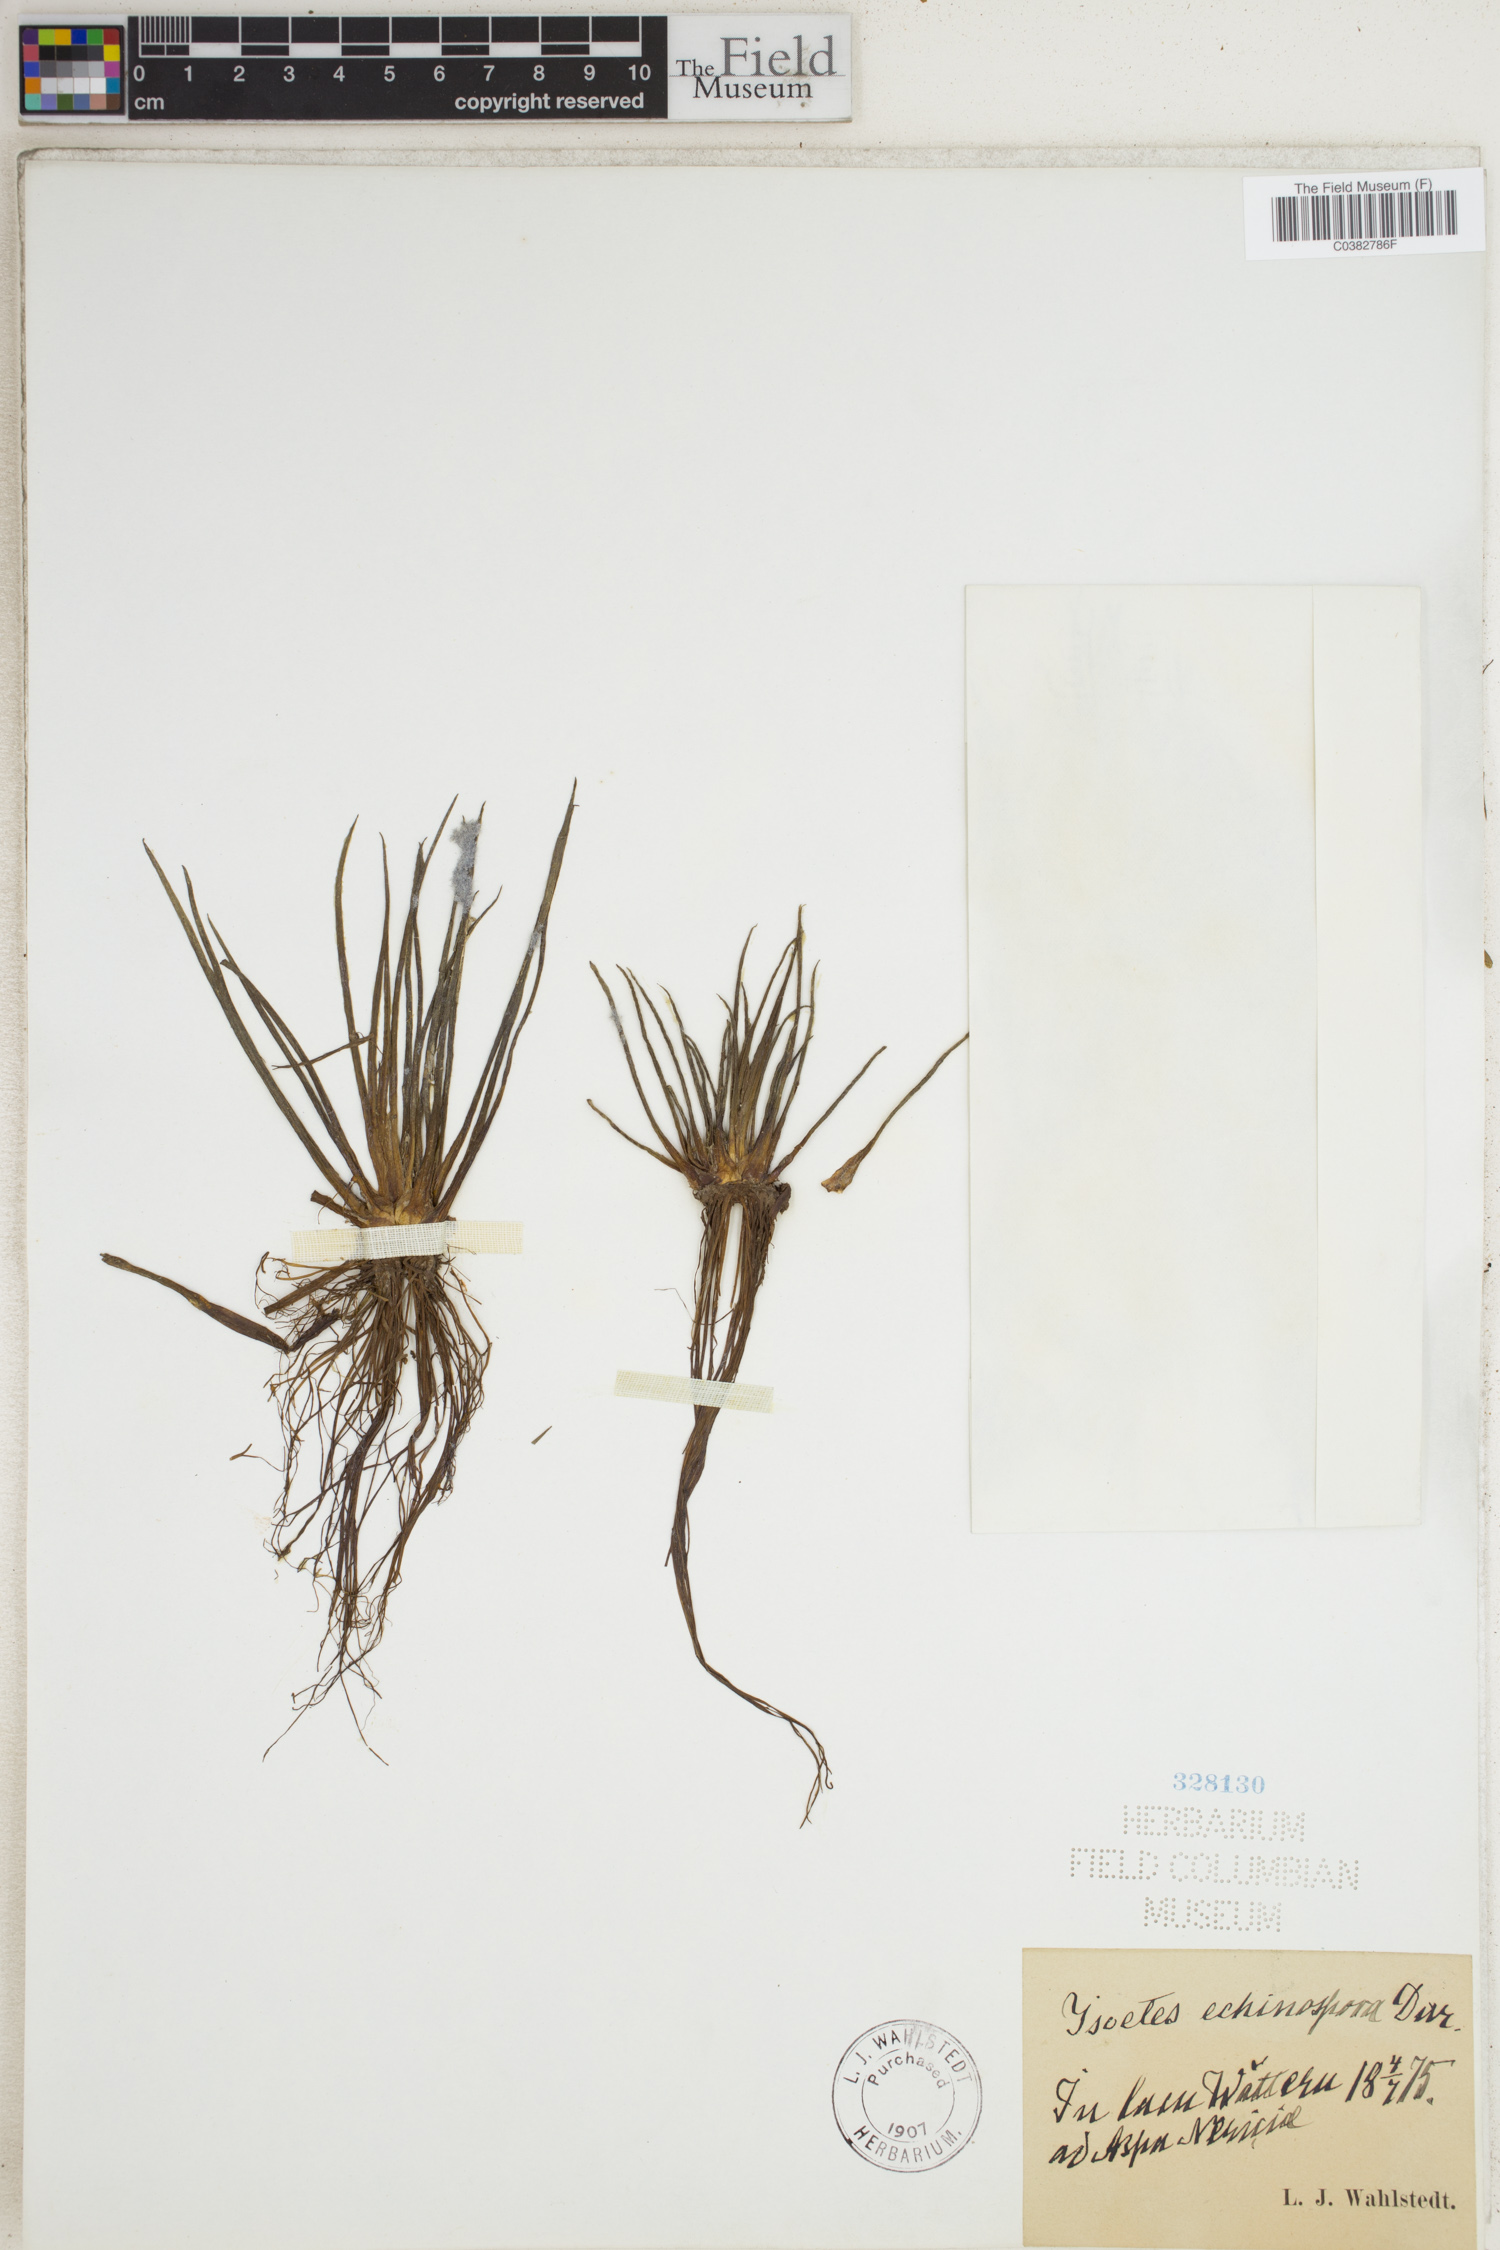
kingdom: Plantae
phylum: Tracheophyta
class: Lycopodiopsida
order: Isoetales
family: Isoetaceae
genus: Isoetes
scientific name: Isoetes echinospora
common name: Spring quillwort
